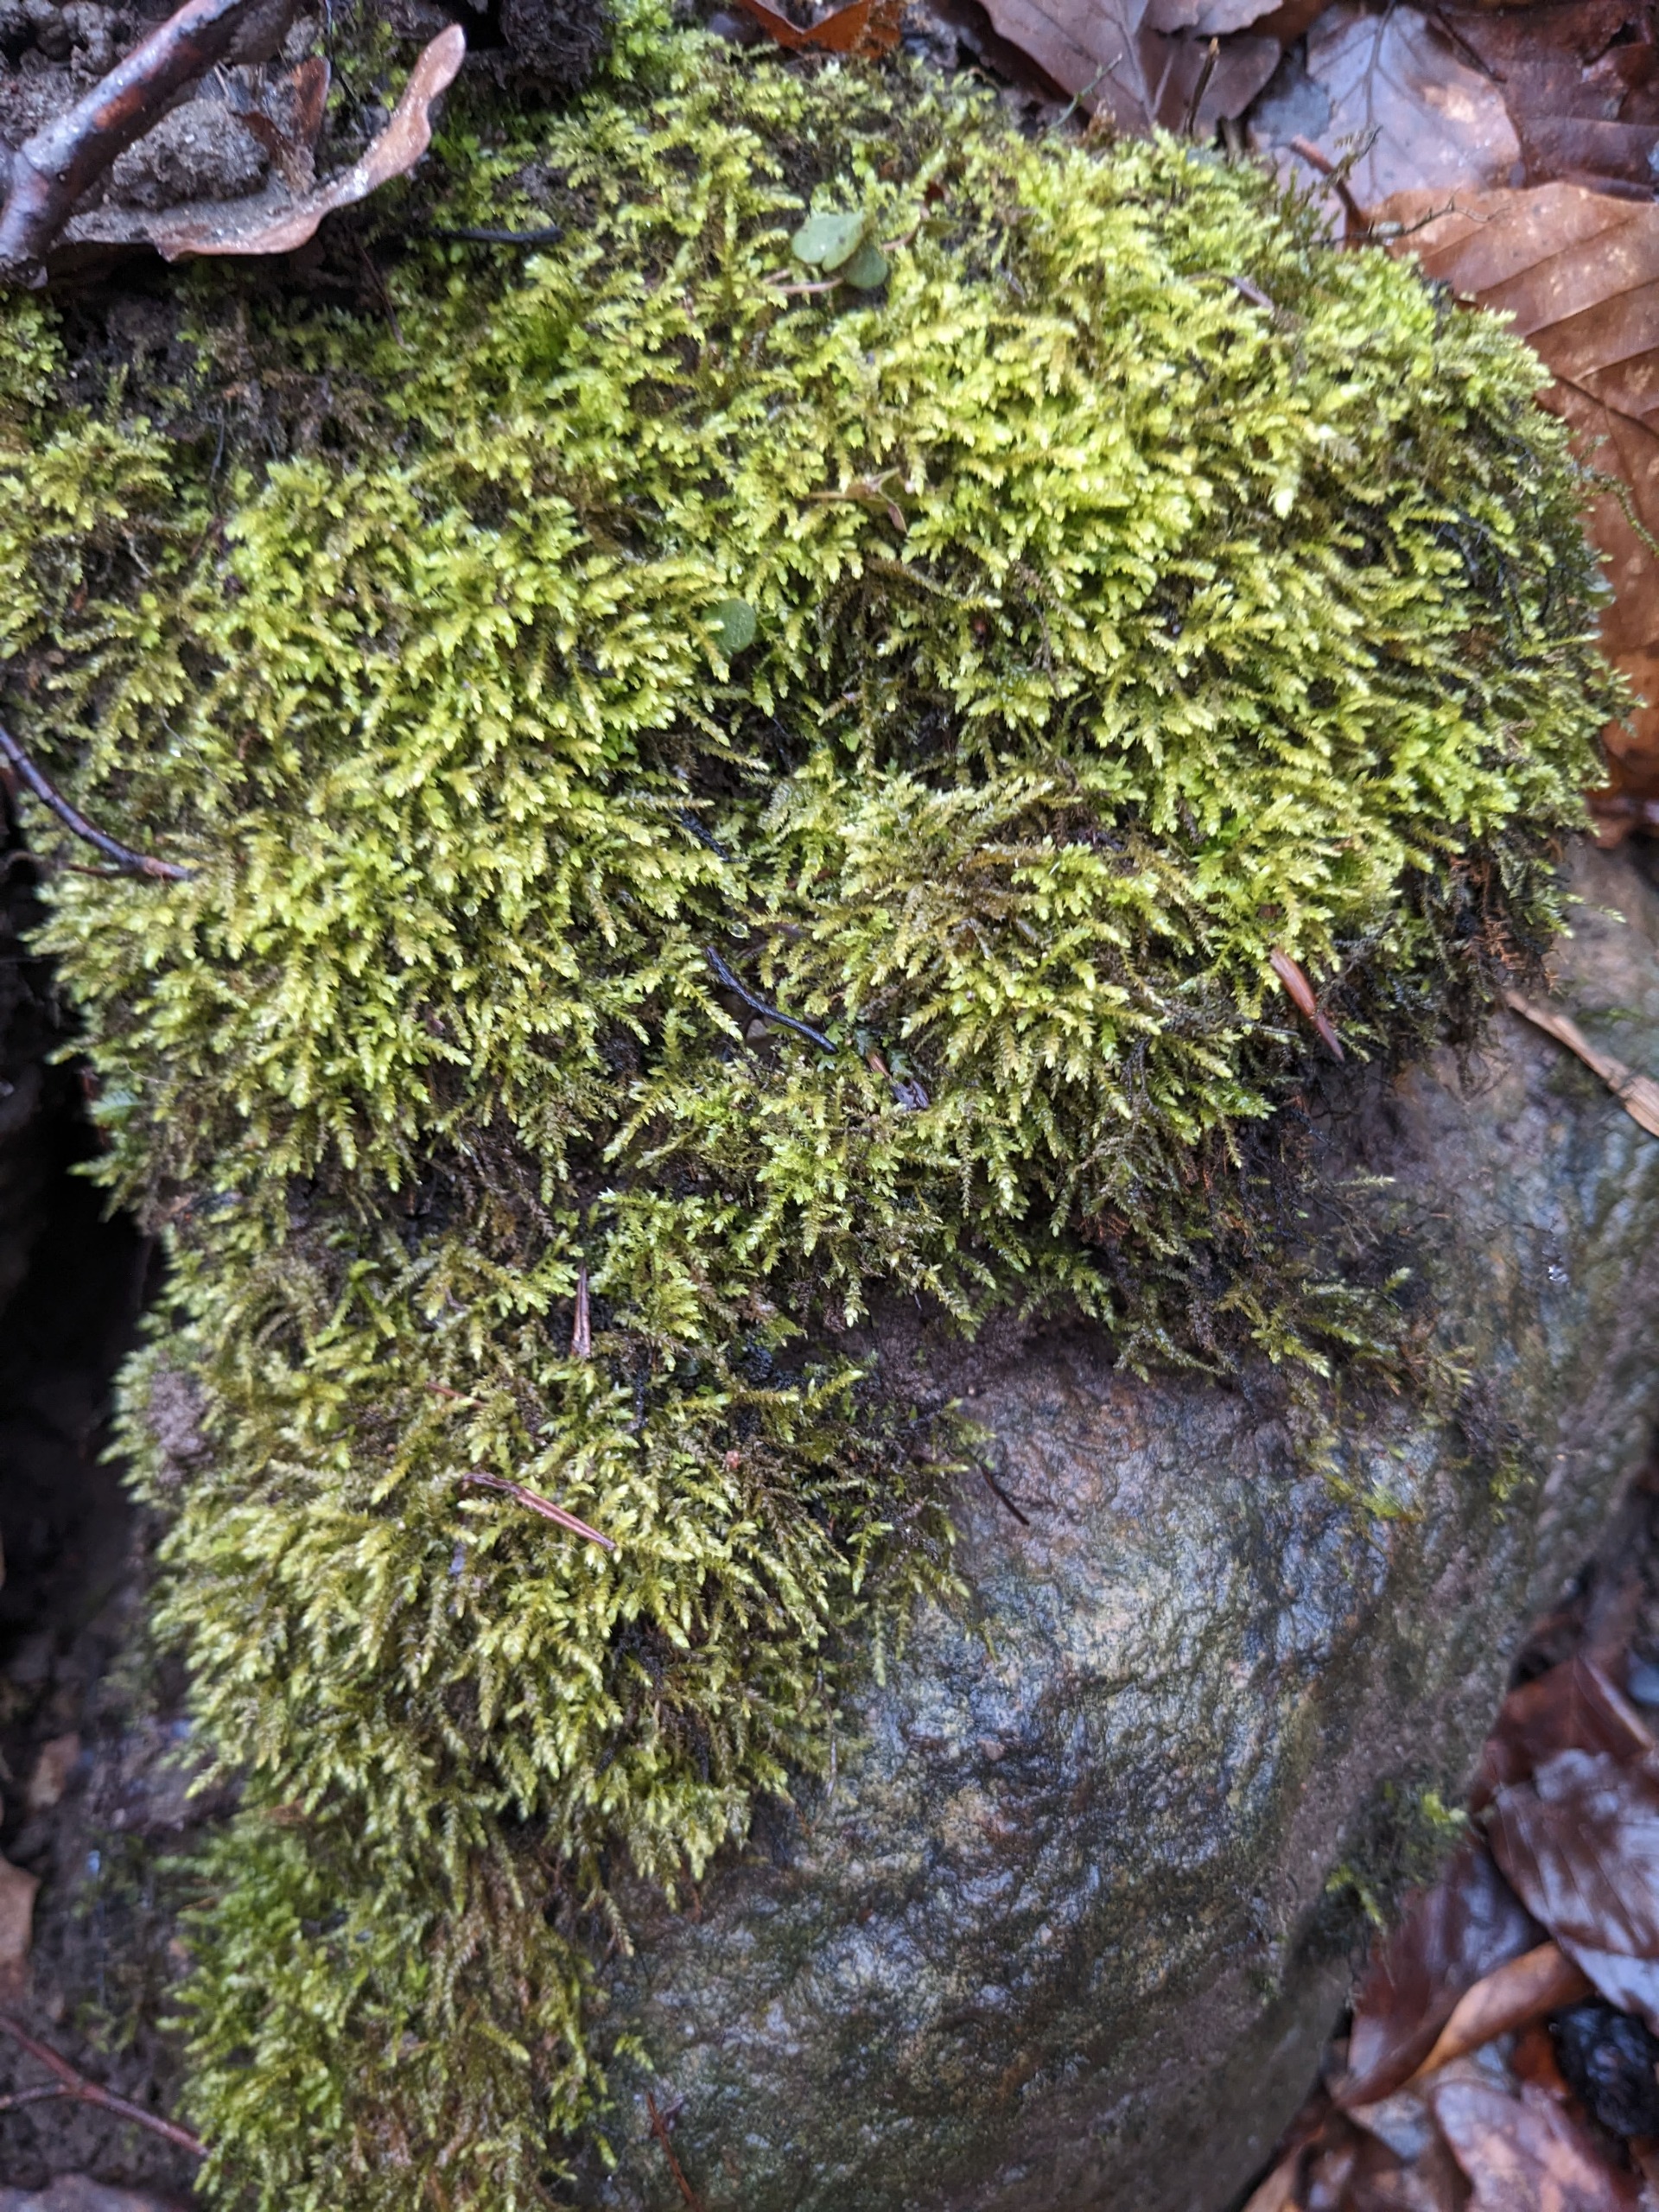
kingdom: Plantae
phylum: Bryophyta
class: Bryopsida
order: Hypnales
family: Brachytheciaceae
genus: Oxyrrhynchium
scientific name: Oxyrrhynchium hians
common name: Ler-vortetand
